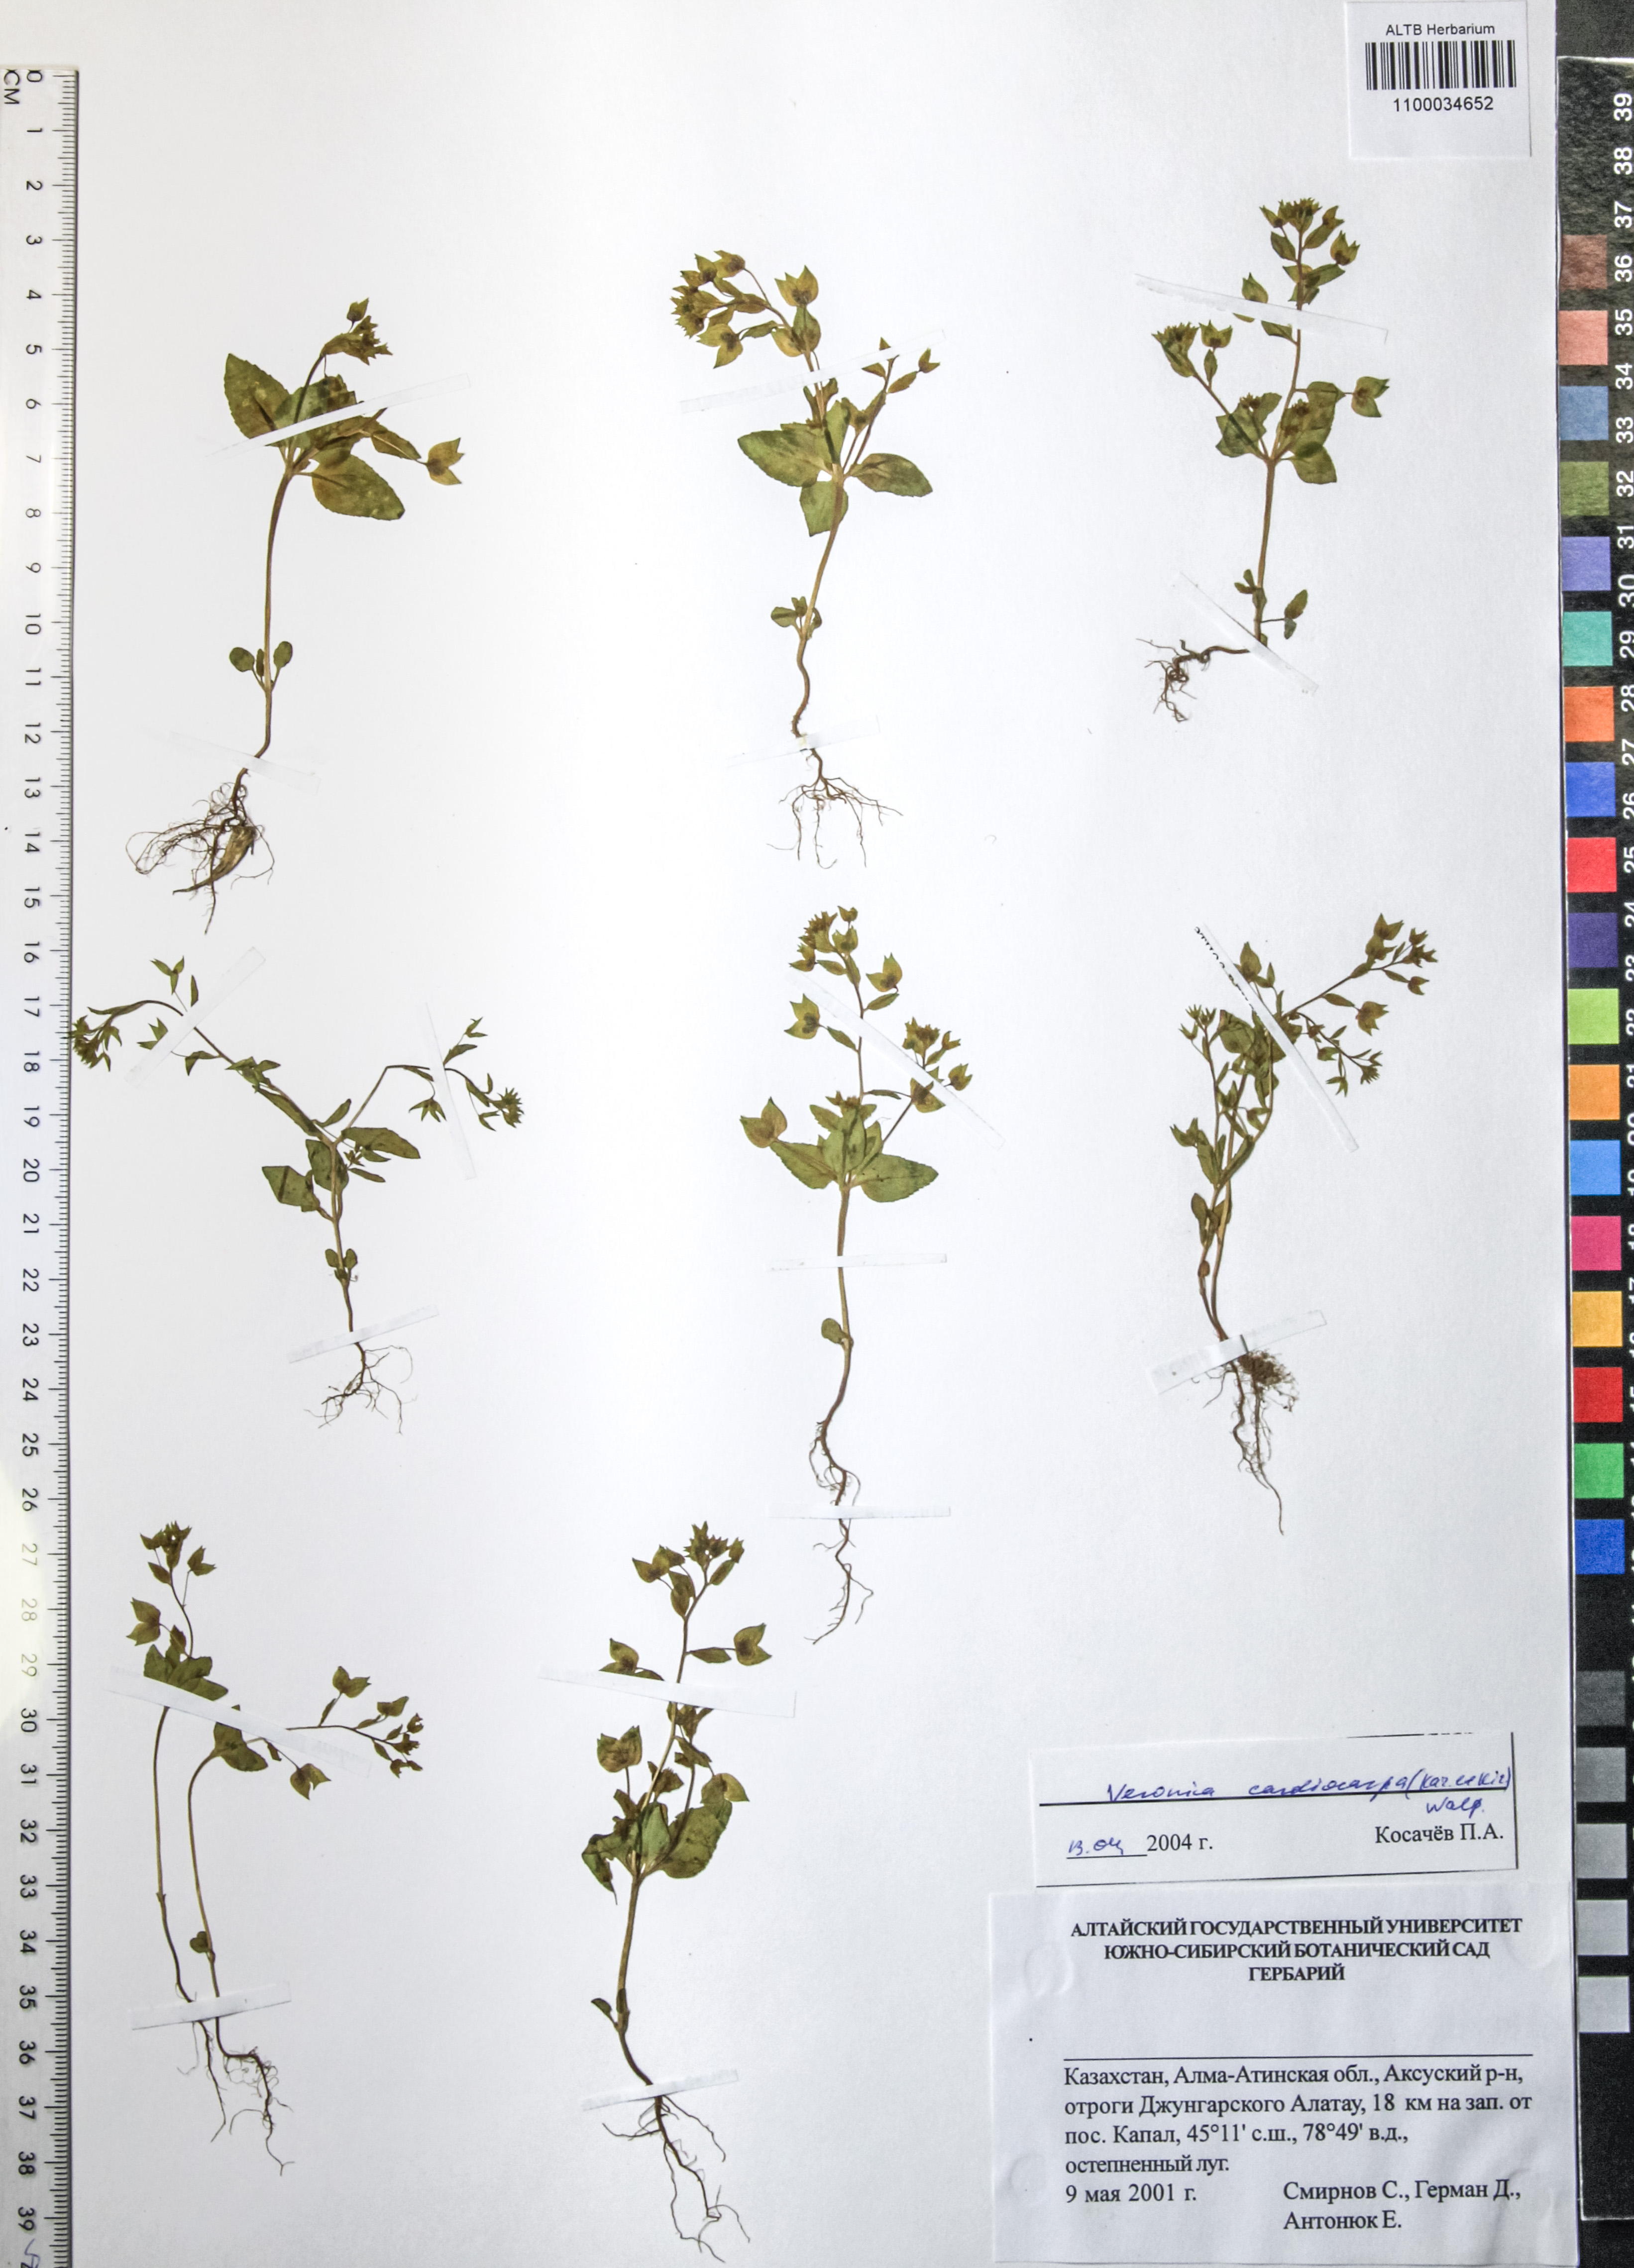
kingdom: Plantae
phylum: Tracheophyta
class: Magnoliopsida
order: Lamiales
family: Plantaginaceae
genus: Veronica
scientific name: Veronica cardiocarpa
